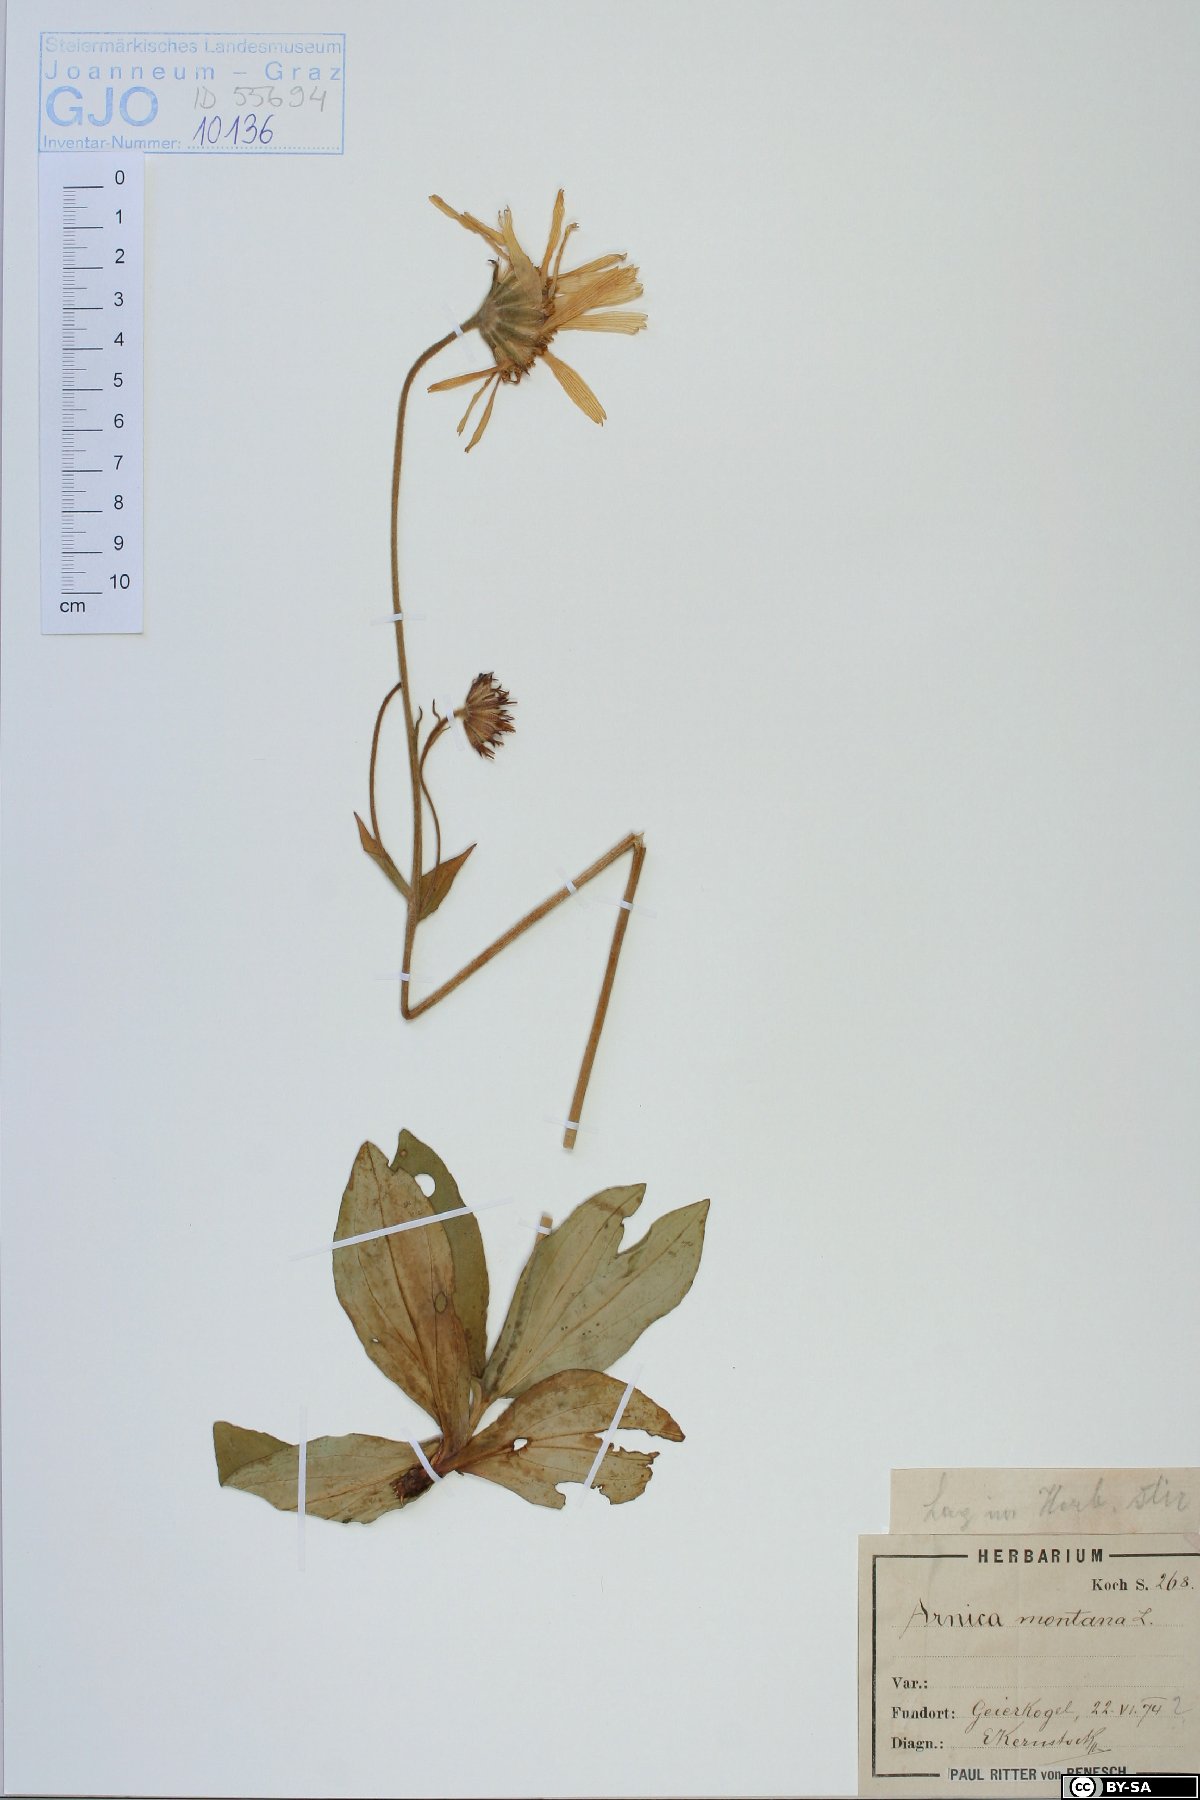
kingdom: Plantae
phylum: Tracheophyta
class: Magnoliopsida
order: Asterales
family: Asteraceae
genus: Arnica
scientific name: Arnica montana
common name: Leopard's bane
